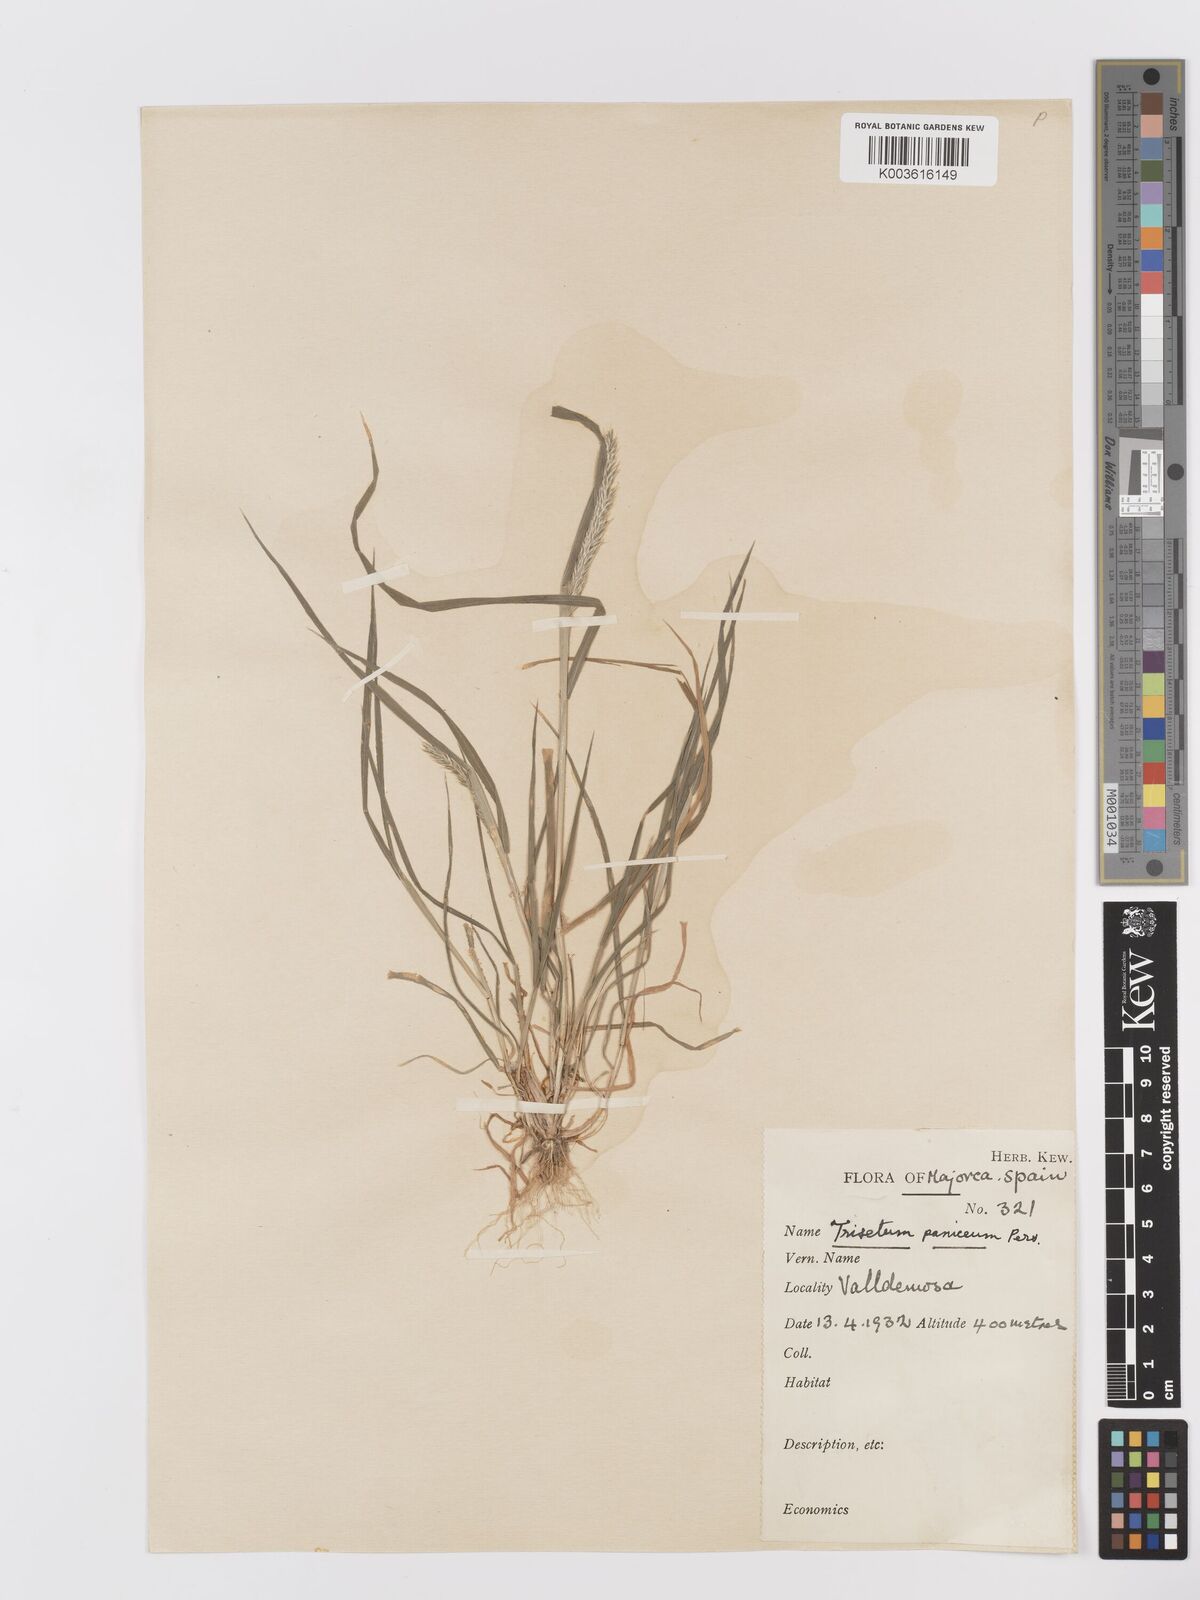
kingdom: Plantae
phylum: Tracheophyta
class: Liliopsida
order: Poales
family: Poaceae
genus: Trisetaria
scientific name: Trisetaria panicea
